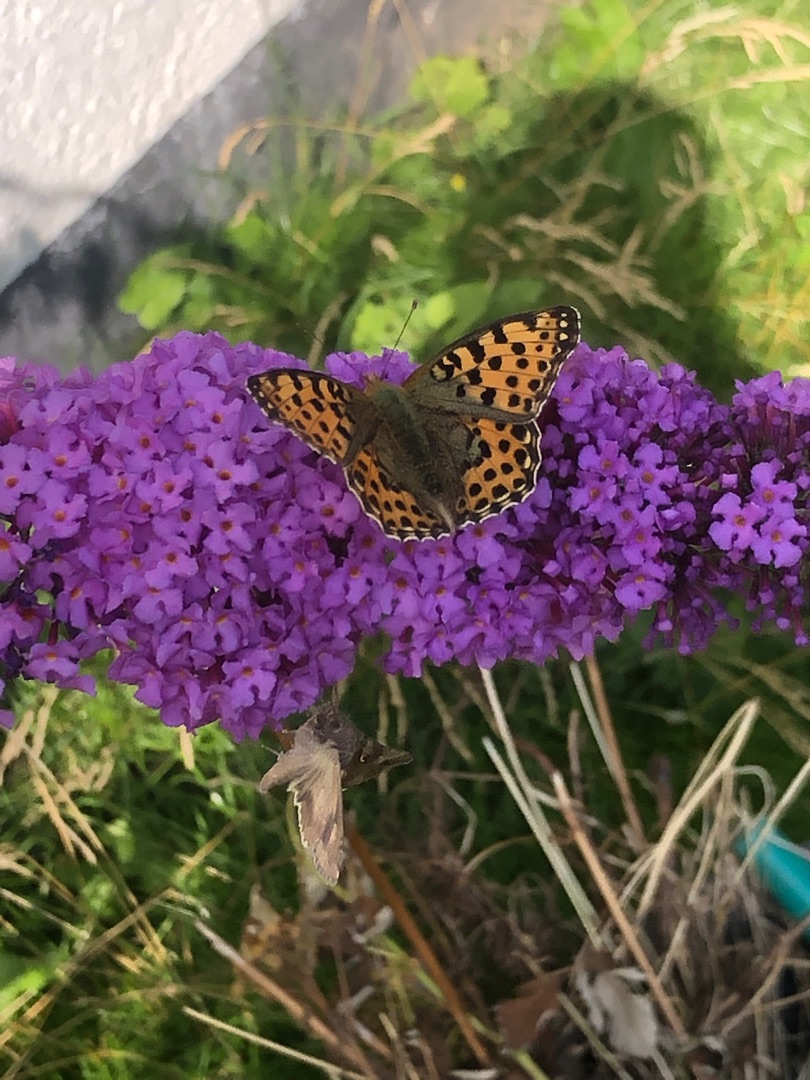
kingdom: Animalia
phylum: Arthropoda
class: Insecta
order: Lepidoptera
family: Nymphalidae
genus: Issoria
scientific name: Issoria lathonia
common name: Storplettet perlemorsommerfugl
